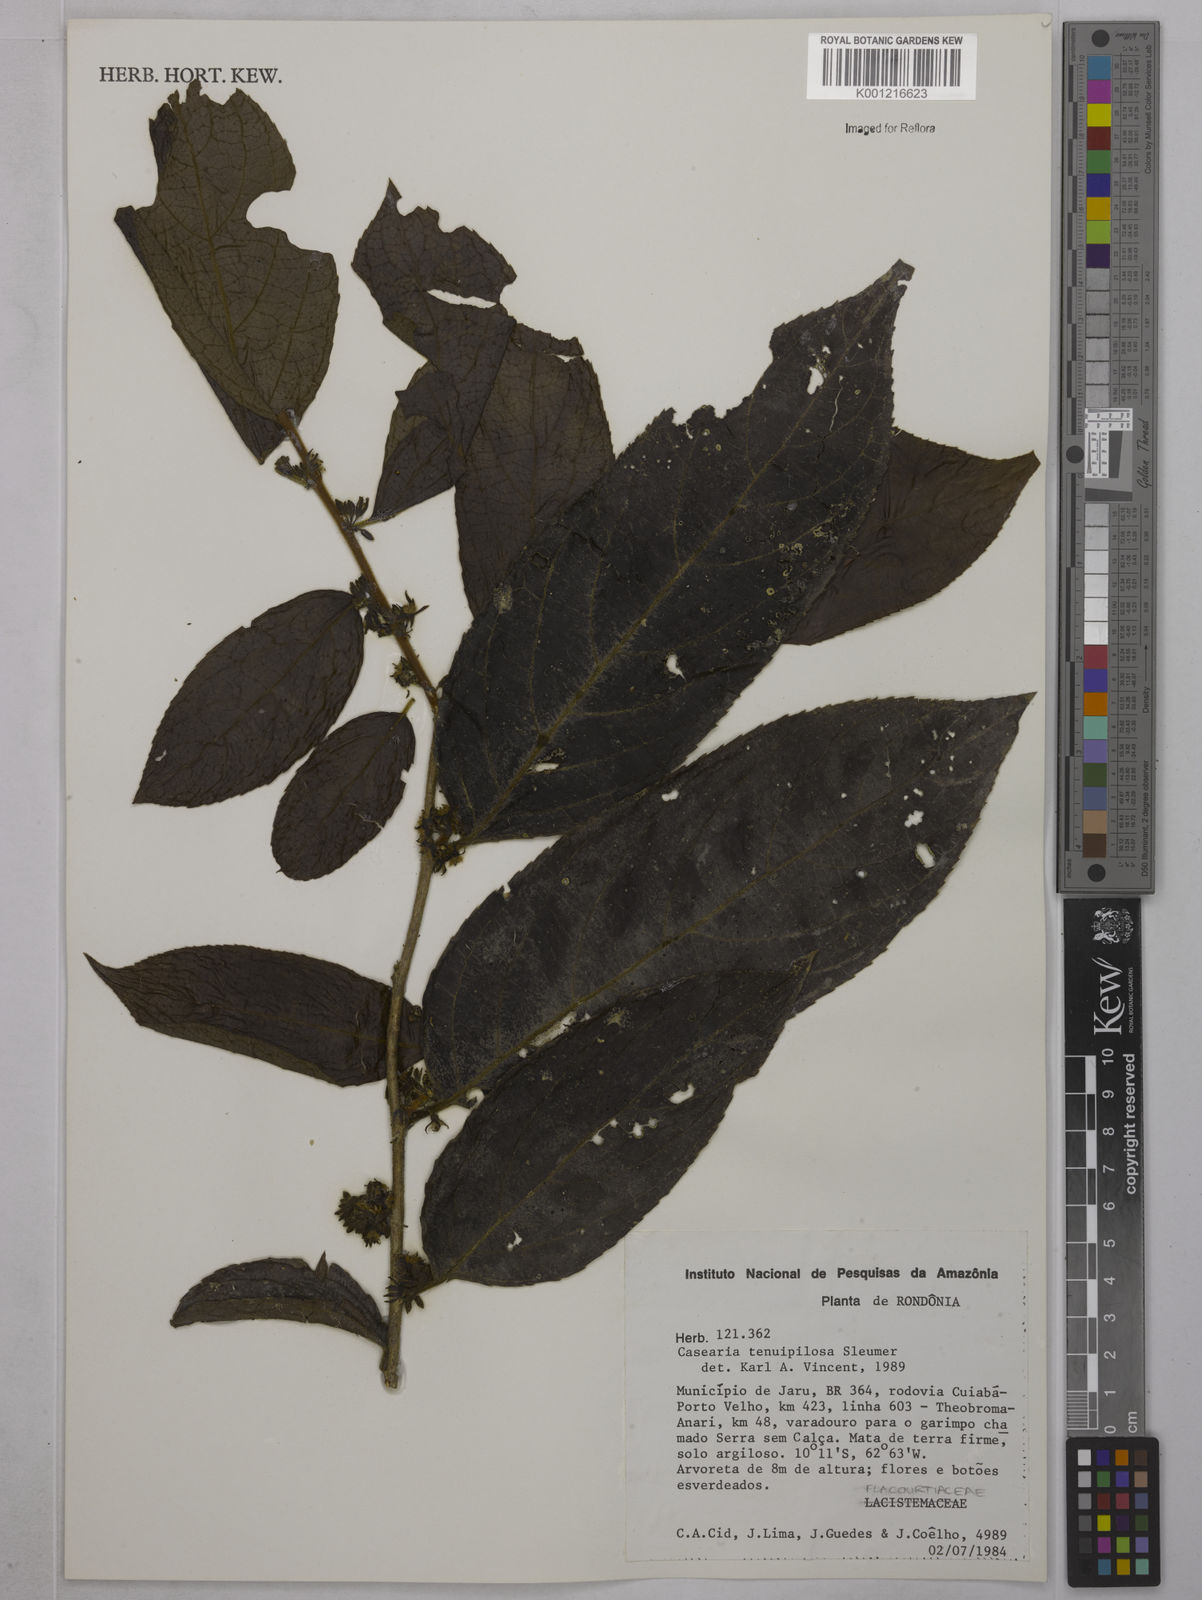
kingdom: Plantae
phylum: Tracheophyta
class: Magnoliopsida
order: Malpighiales
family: Salicaceae
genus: Casearia
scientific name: Casearia tenuipilosa
